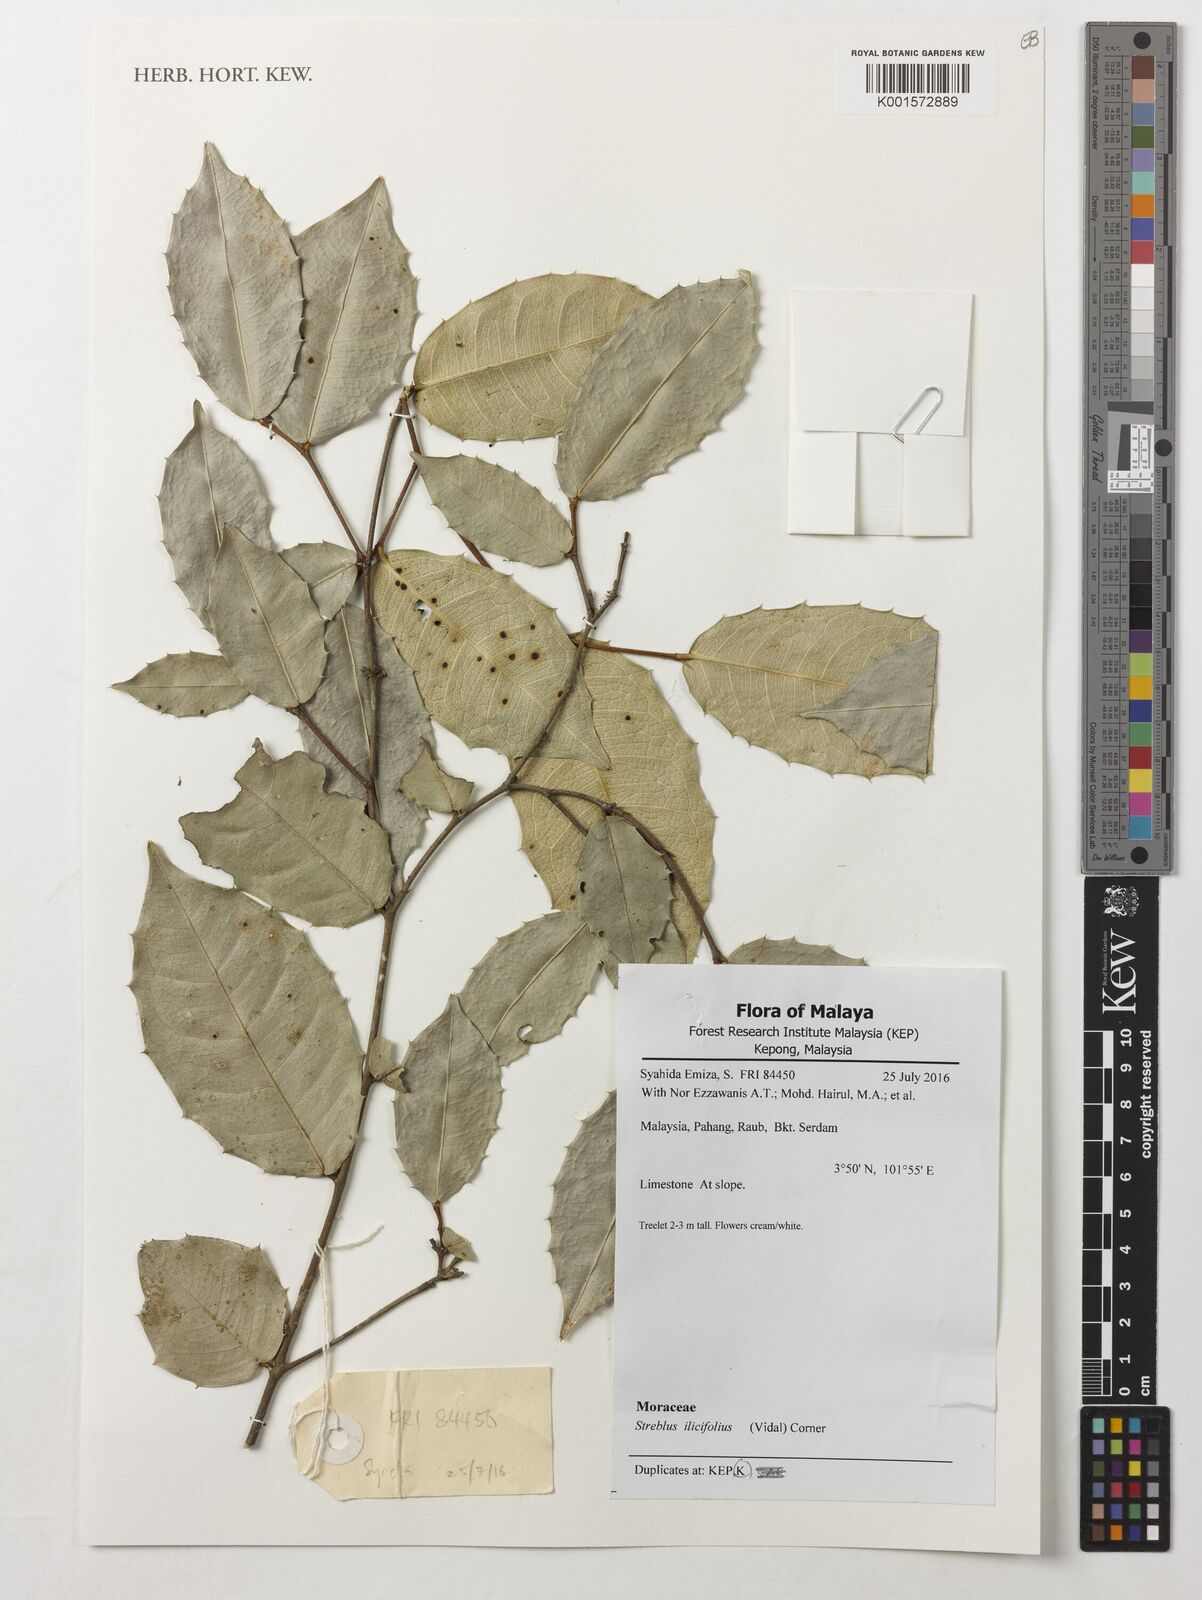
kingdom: Plantae
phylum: Tracheophyta
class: Magnoliopsida
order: Rosales
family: Moraceae
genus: Taxotrophis
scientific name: Taxotrophis ilicifolia
